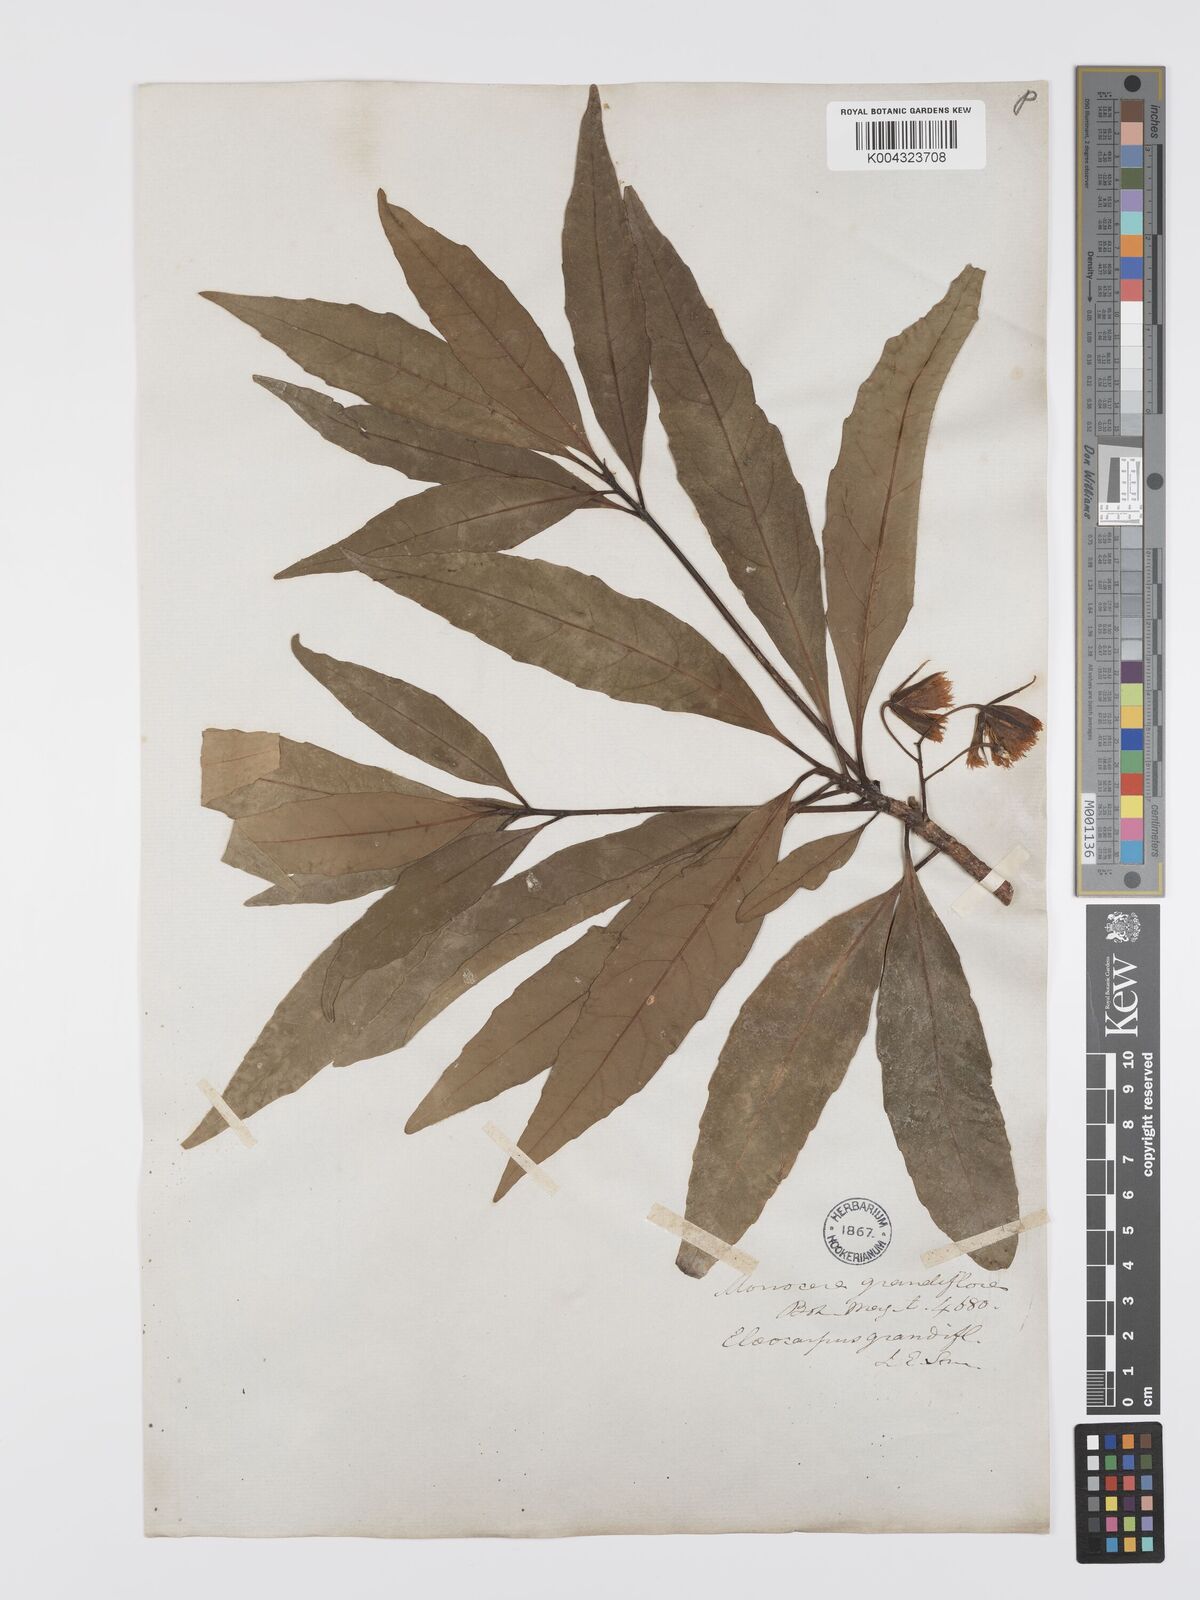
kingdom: Plantae
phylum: Tracheophyta
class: Magnoliopsida
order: Oxalidales
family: Elaeocarpaceae
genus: Elaeocarpus
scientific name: Elaeocarpus grandiflorus
